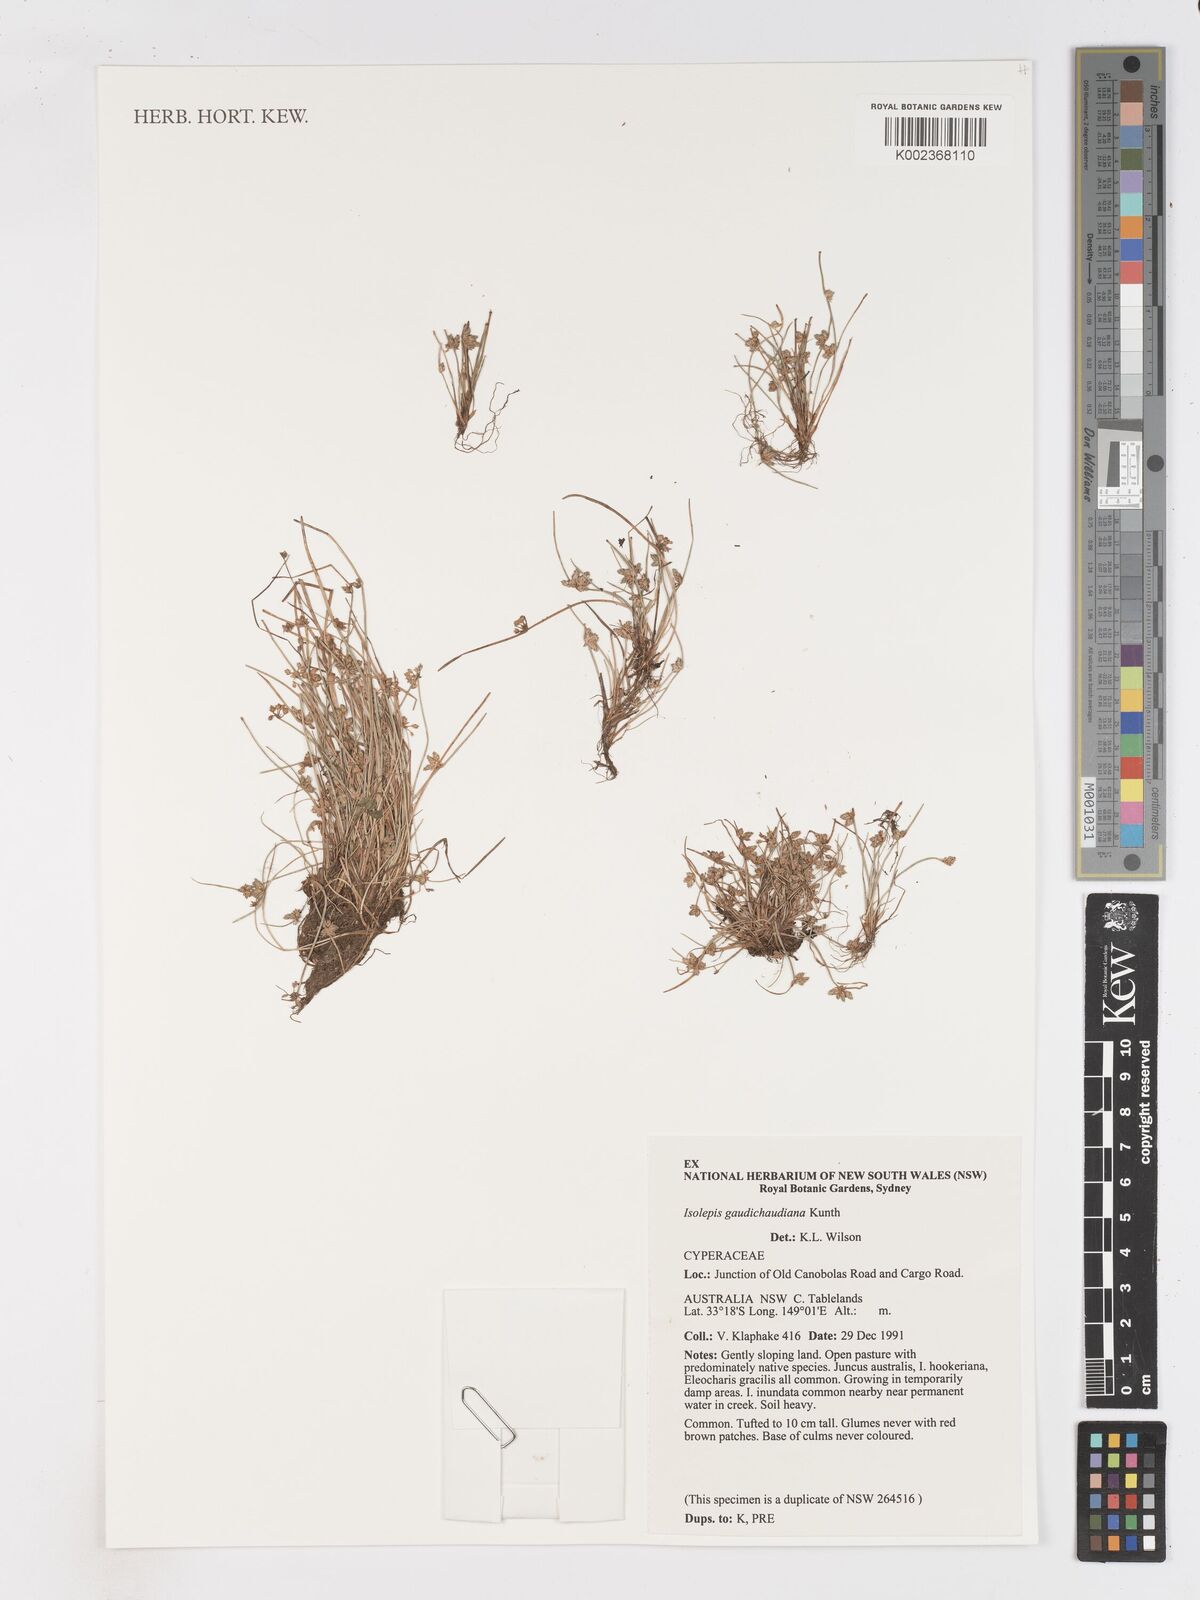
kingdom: Plantae
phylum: Tracheophyta
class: Liliopsida
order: Poales
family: Cyperaceae
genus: Isolepis
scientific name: Isolepis gaudichaudiana
